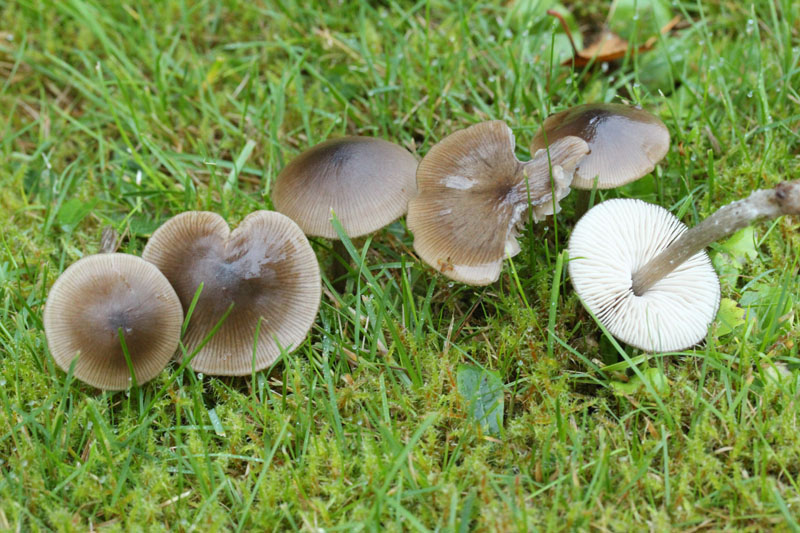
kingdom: Fungi
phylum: Basidiomycota
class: Agaricomycetes
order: Agaricales
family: Entolomataceae
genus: Entoloma
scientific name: Entoloma conferendum
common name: stjernesporet rødblad
